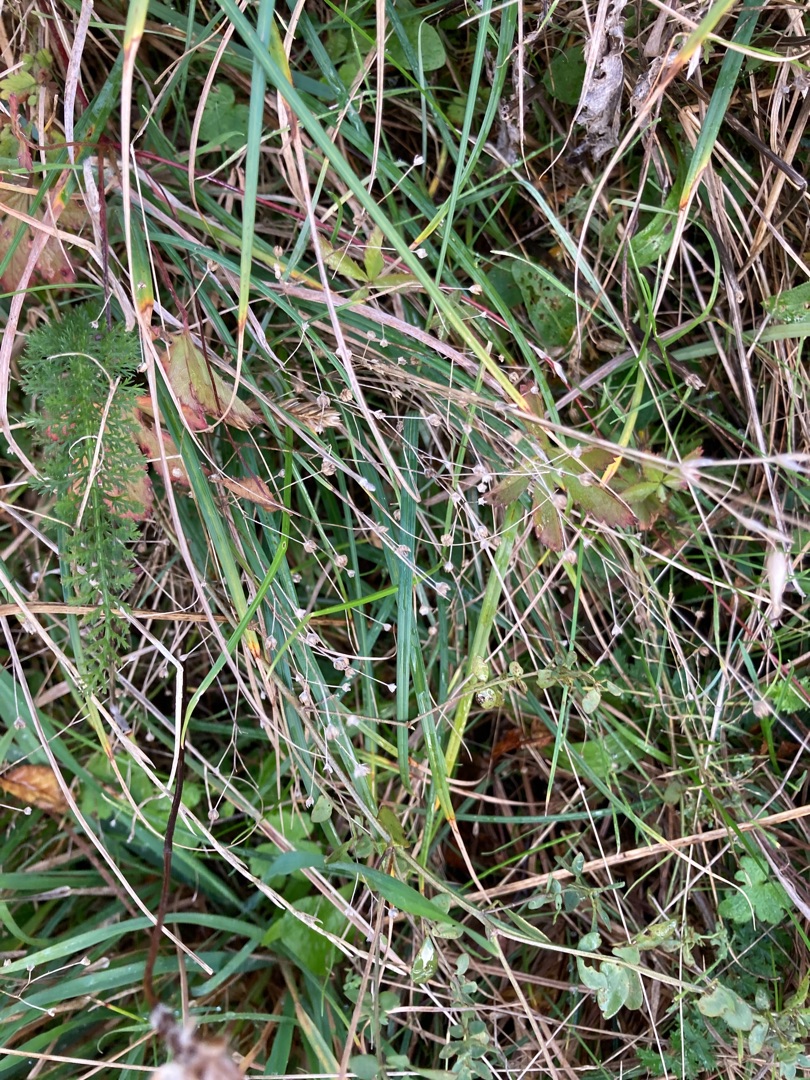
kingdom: Plantae
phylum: Tracheophyta
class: Magnoliopsida
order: Malpighiales
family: Linaceae
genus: Linum
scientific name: Linum catharticum
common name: Vild hør
